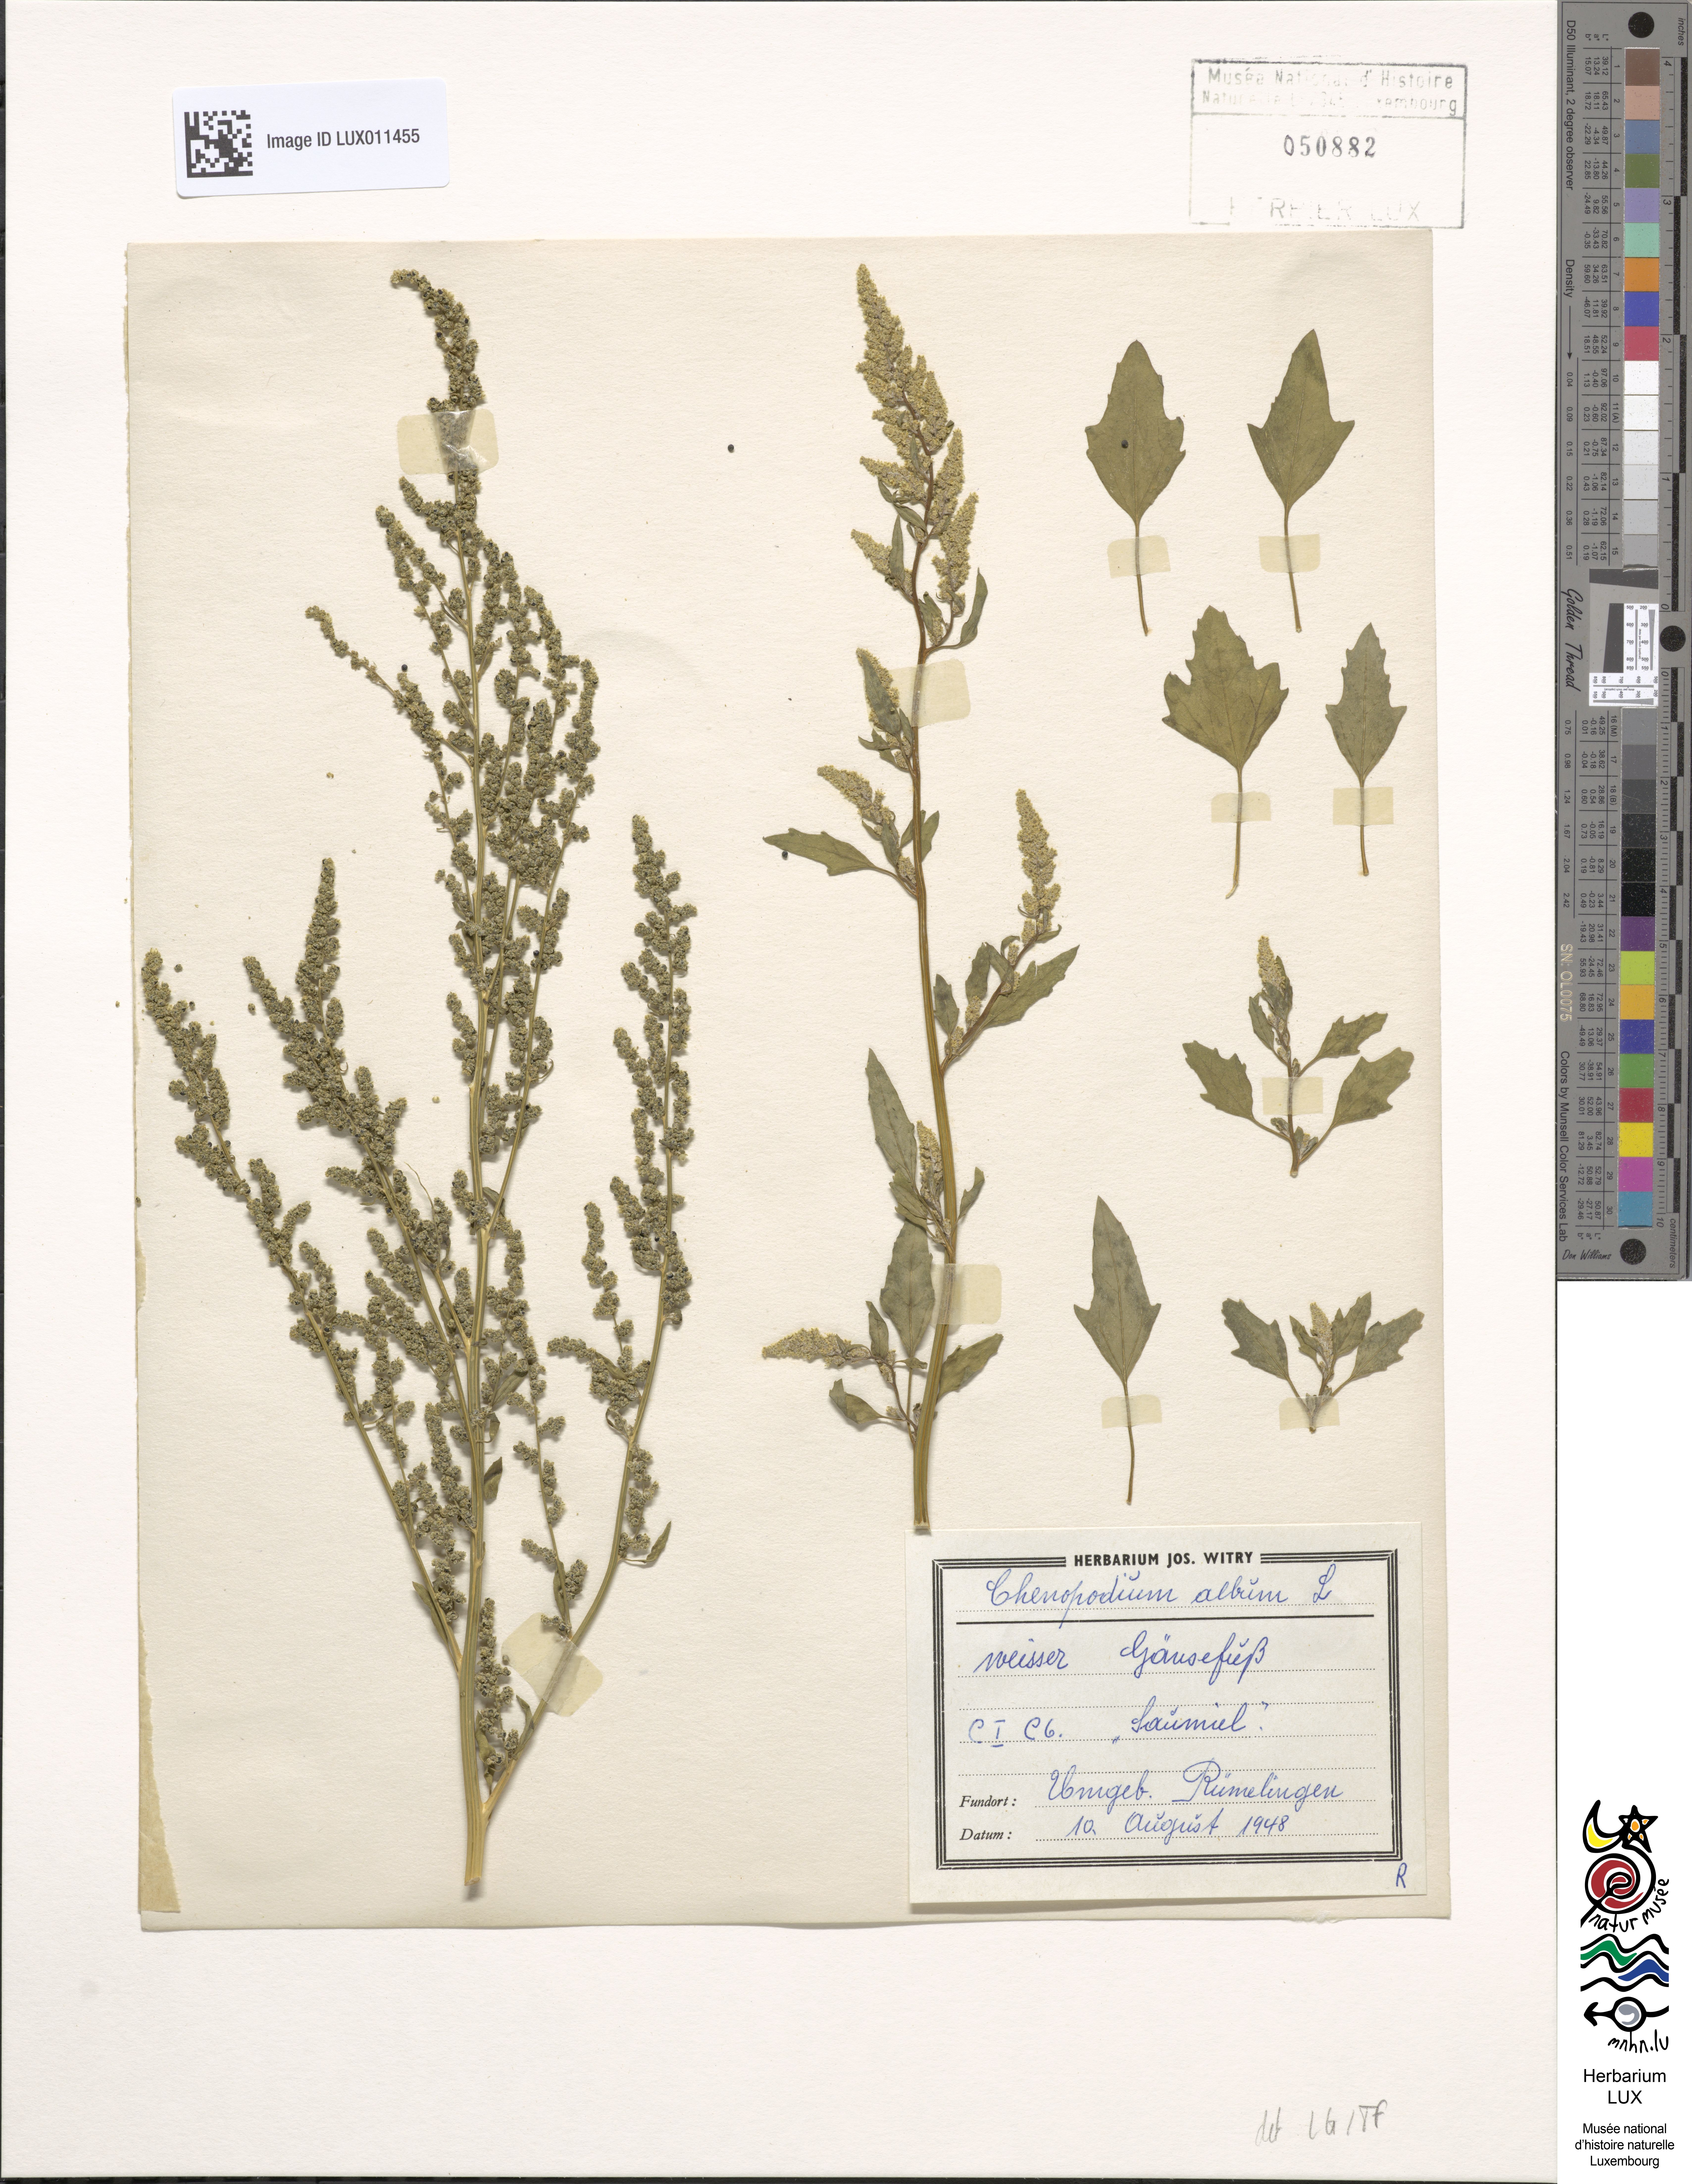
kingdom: Plantae
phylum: Tracheophyta
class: Magnoliopsida
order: Caryophyllales
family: Amaranthaceae
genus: Chenopodium
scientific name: Chenopodium album
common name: Fat-hen
